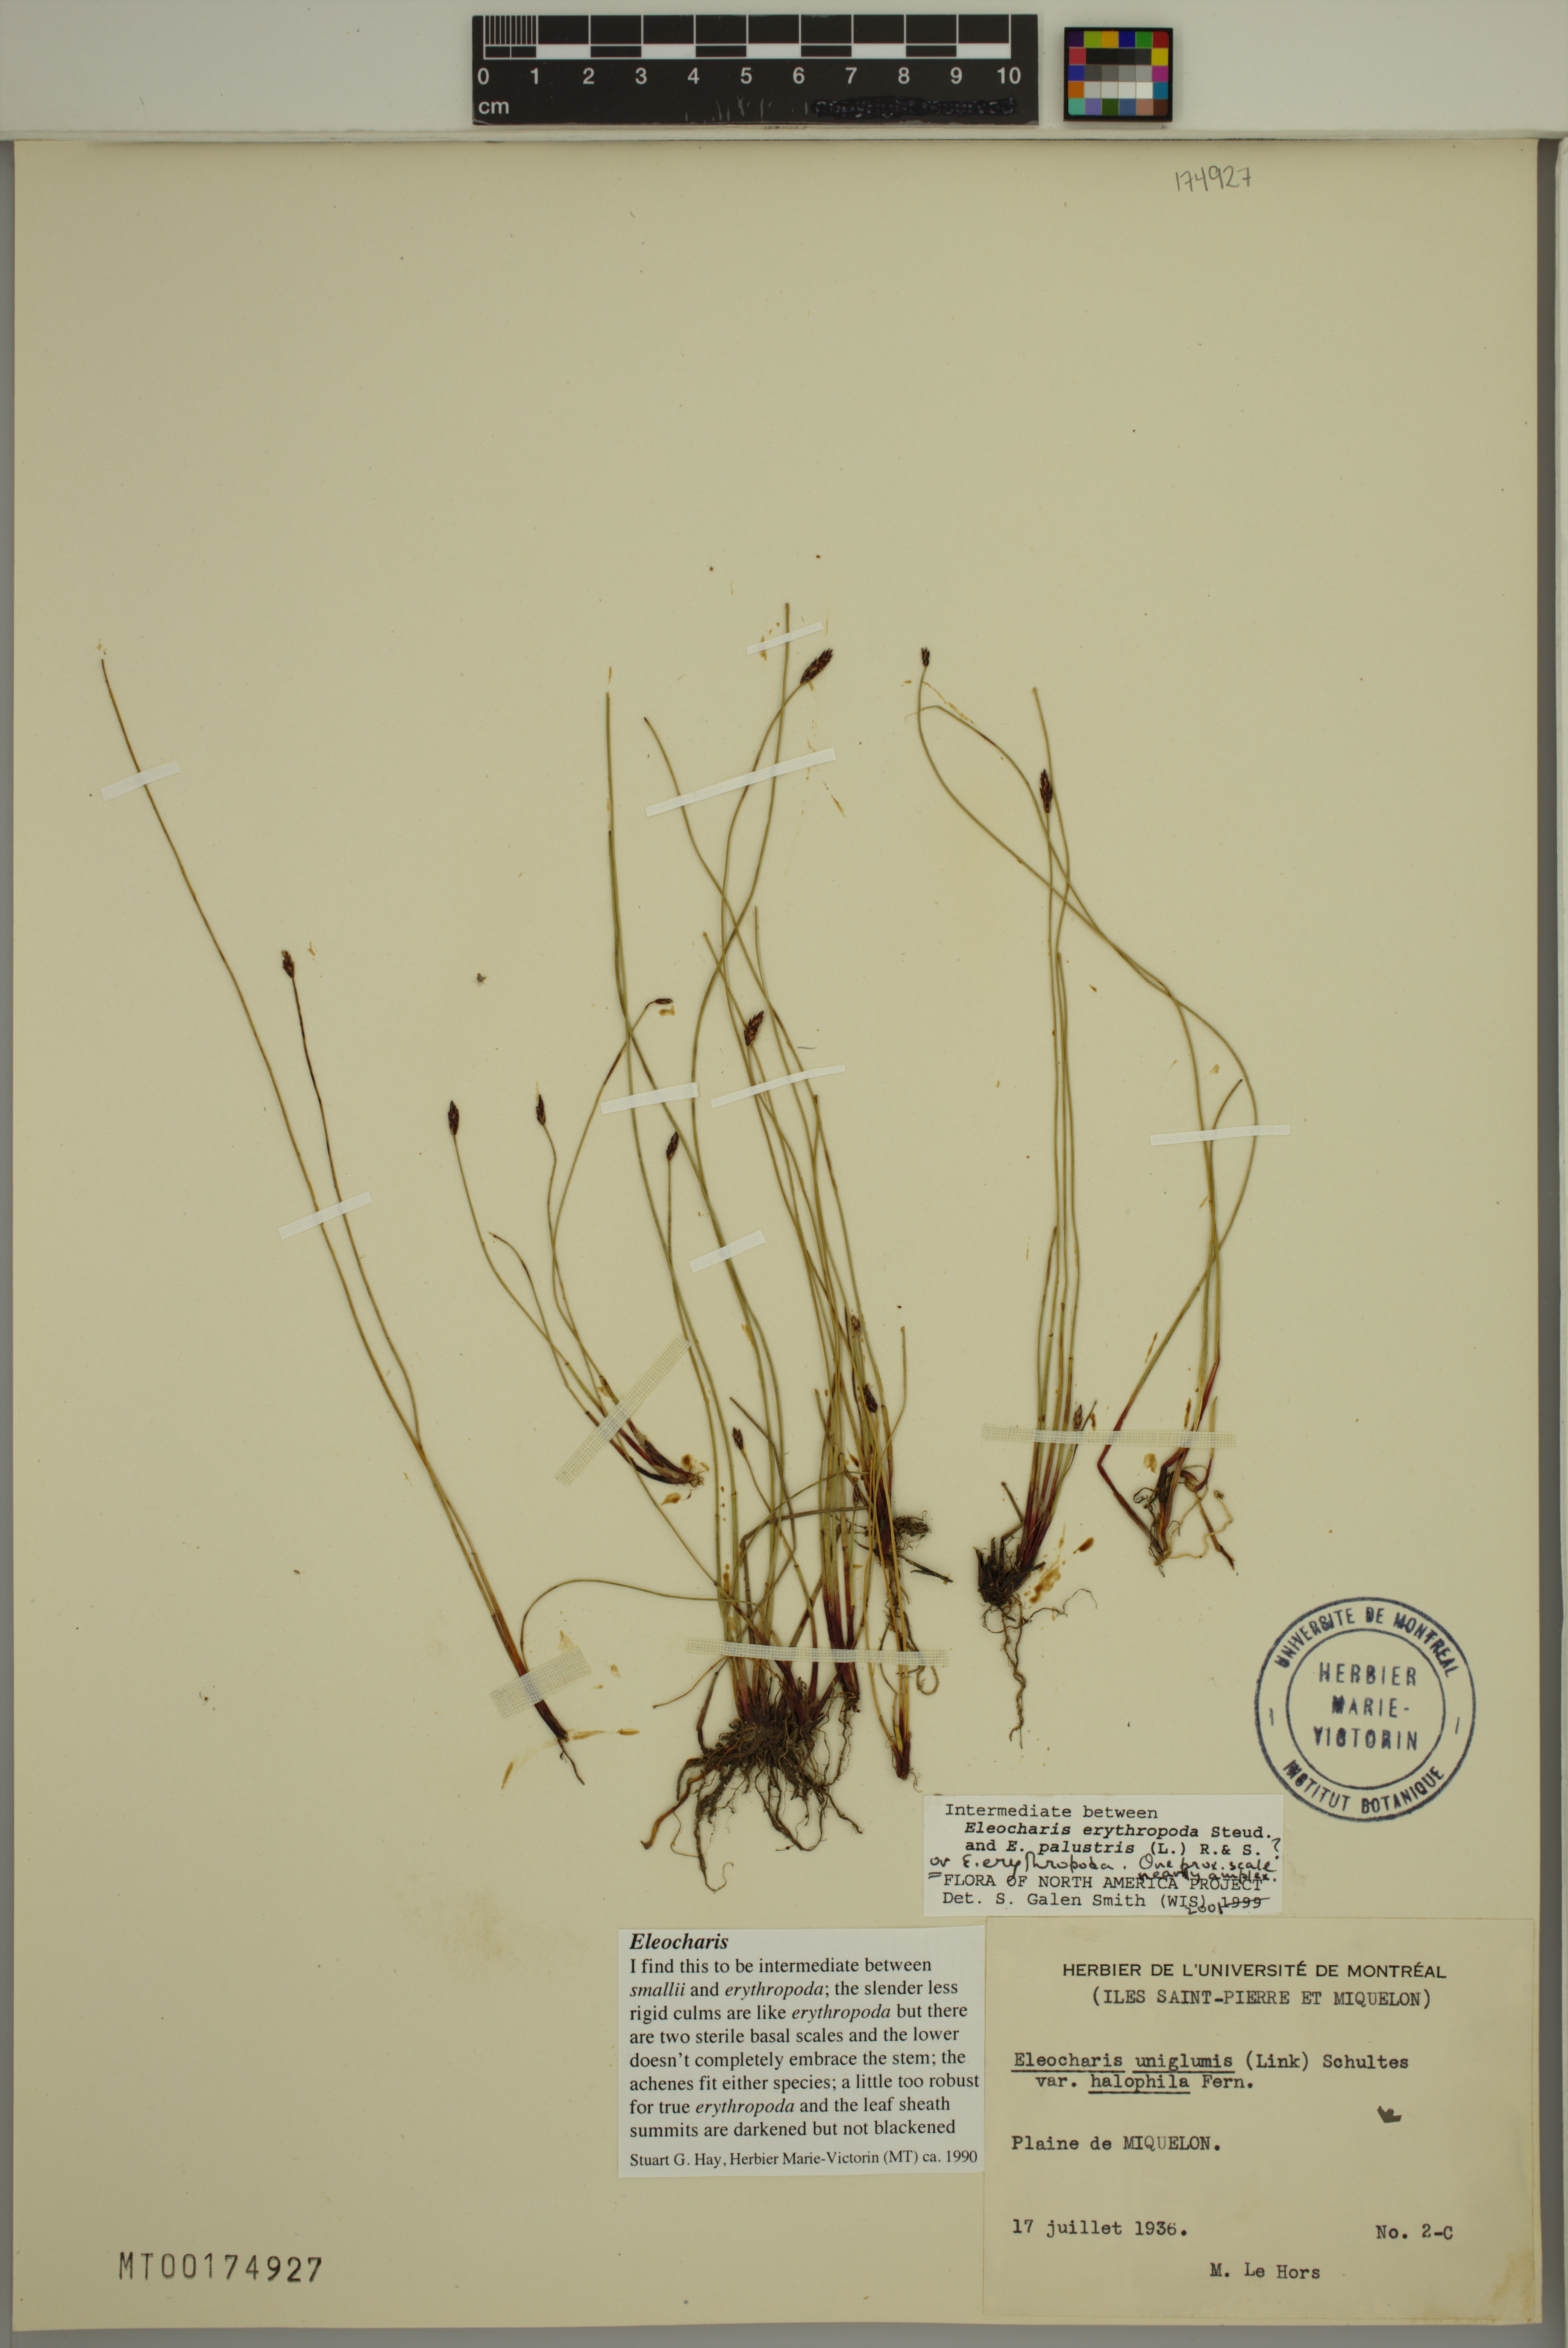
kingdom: Plantae
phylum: Tracheophyta
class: Liliopsida
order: Poales
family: Cyperaceae
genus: Eleocharis
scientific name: Eleocharis erythropoda
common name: Bald spikerush
